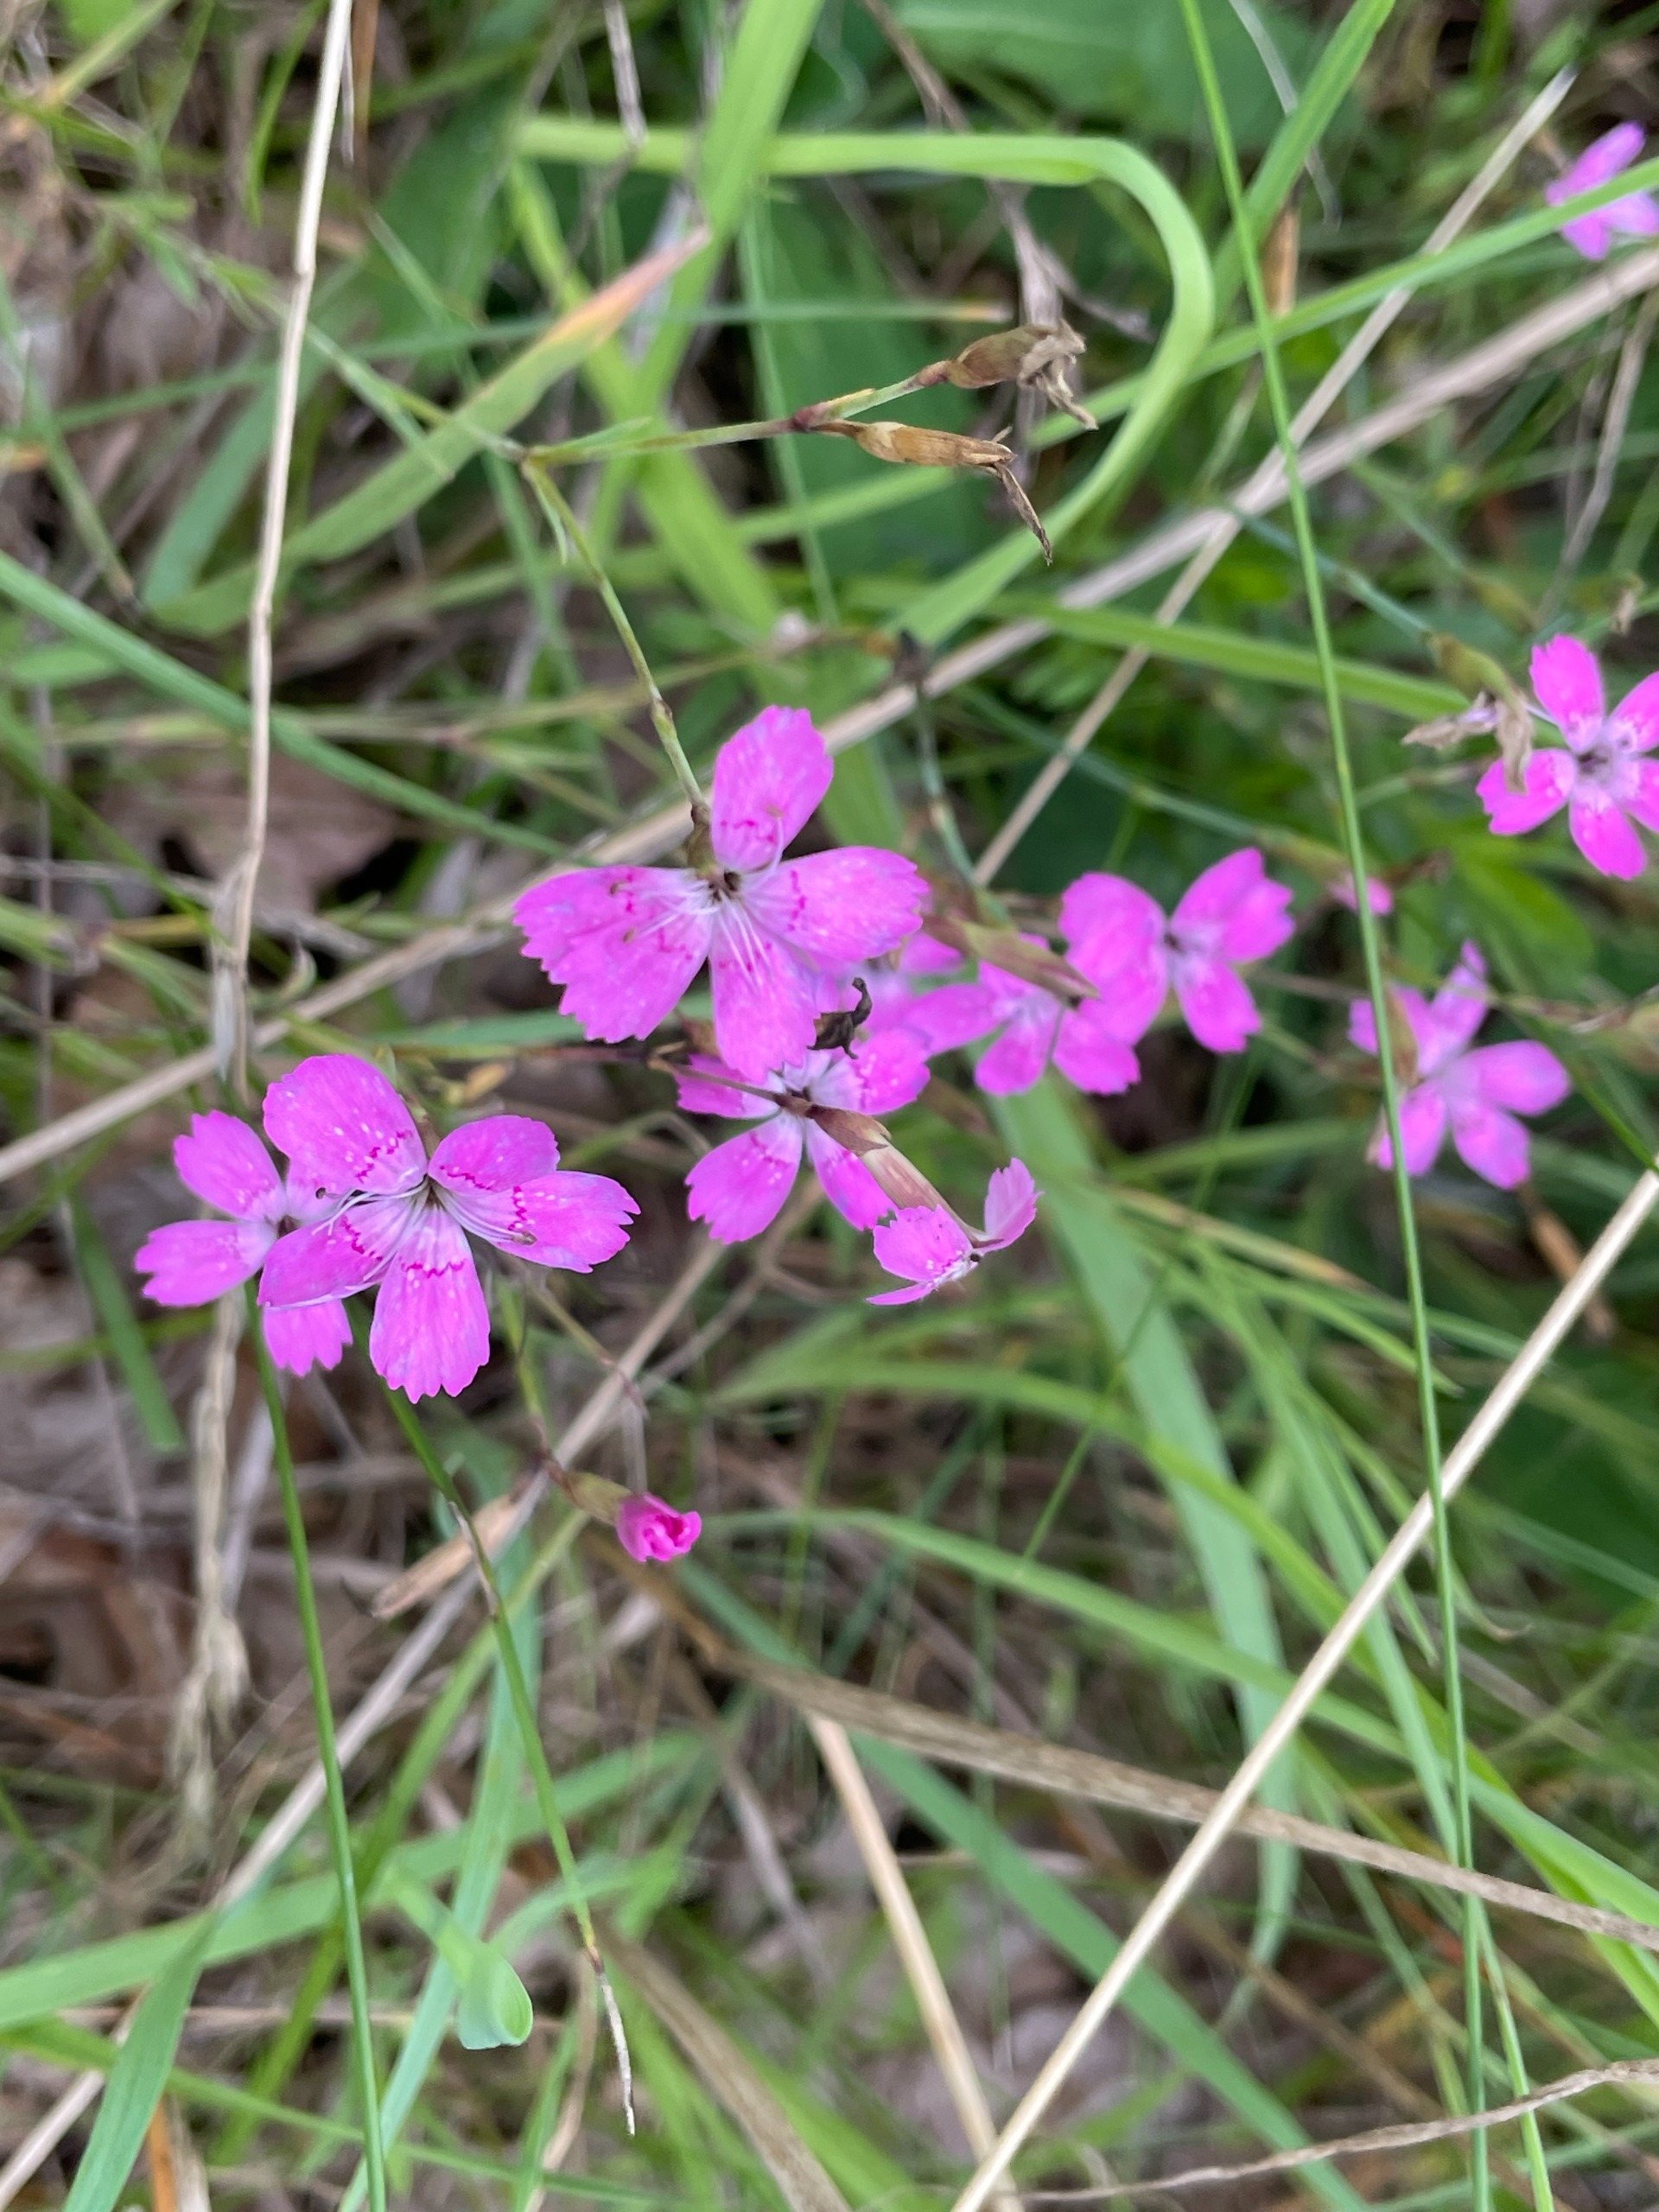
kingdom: Plantae
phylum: Tracheophyta
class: Magnoliopsida
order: Caryophyllales
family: Caryophyllaceae
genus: Dianthus
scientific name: Dianthus deltoides
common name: Bakke-nellike
